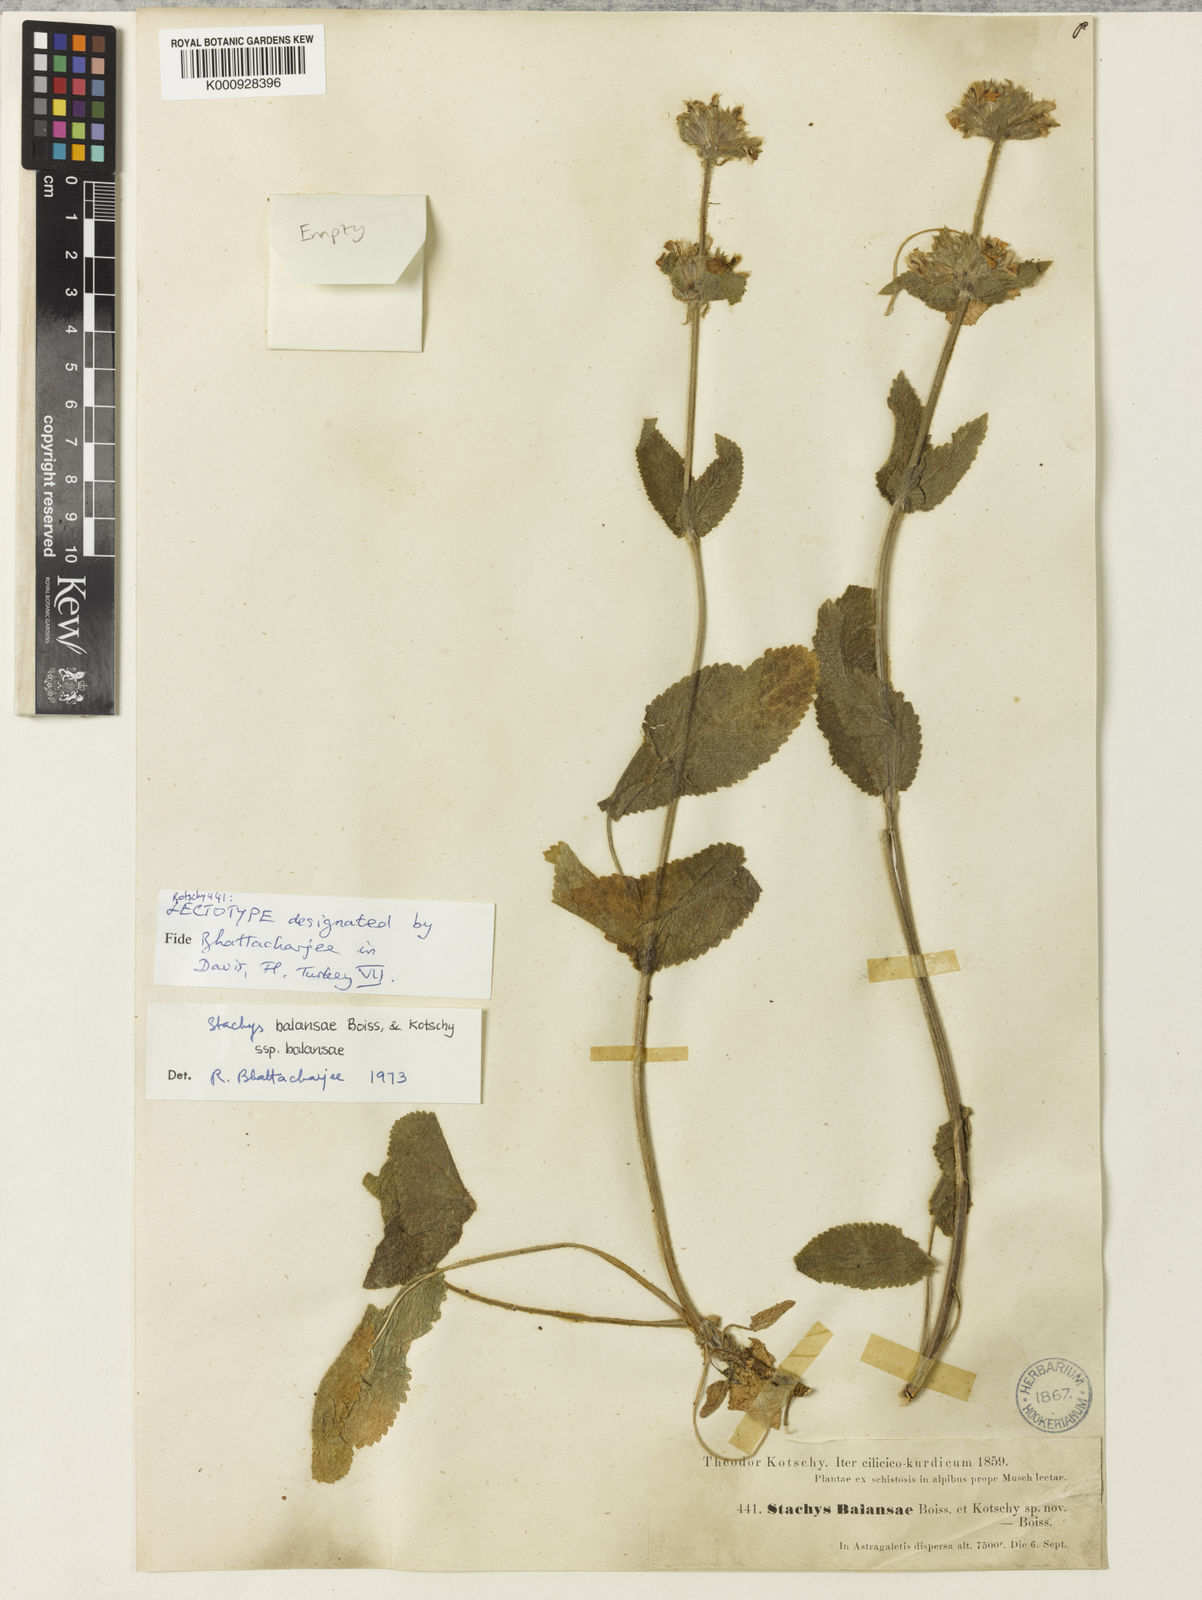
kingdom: Plantae
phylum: Tracheophyta
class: Magnoliopsida
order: Lamiales
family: Lamiaceae
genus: Stachys
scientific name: Stachys balansae
